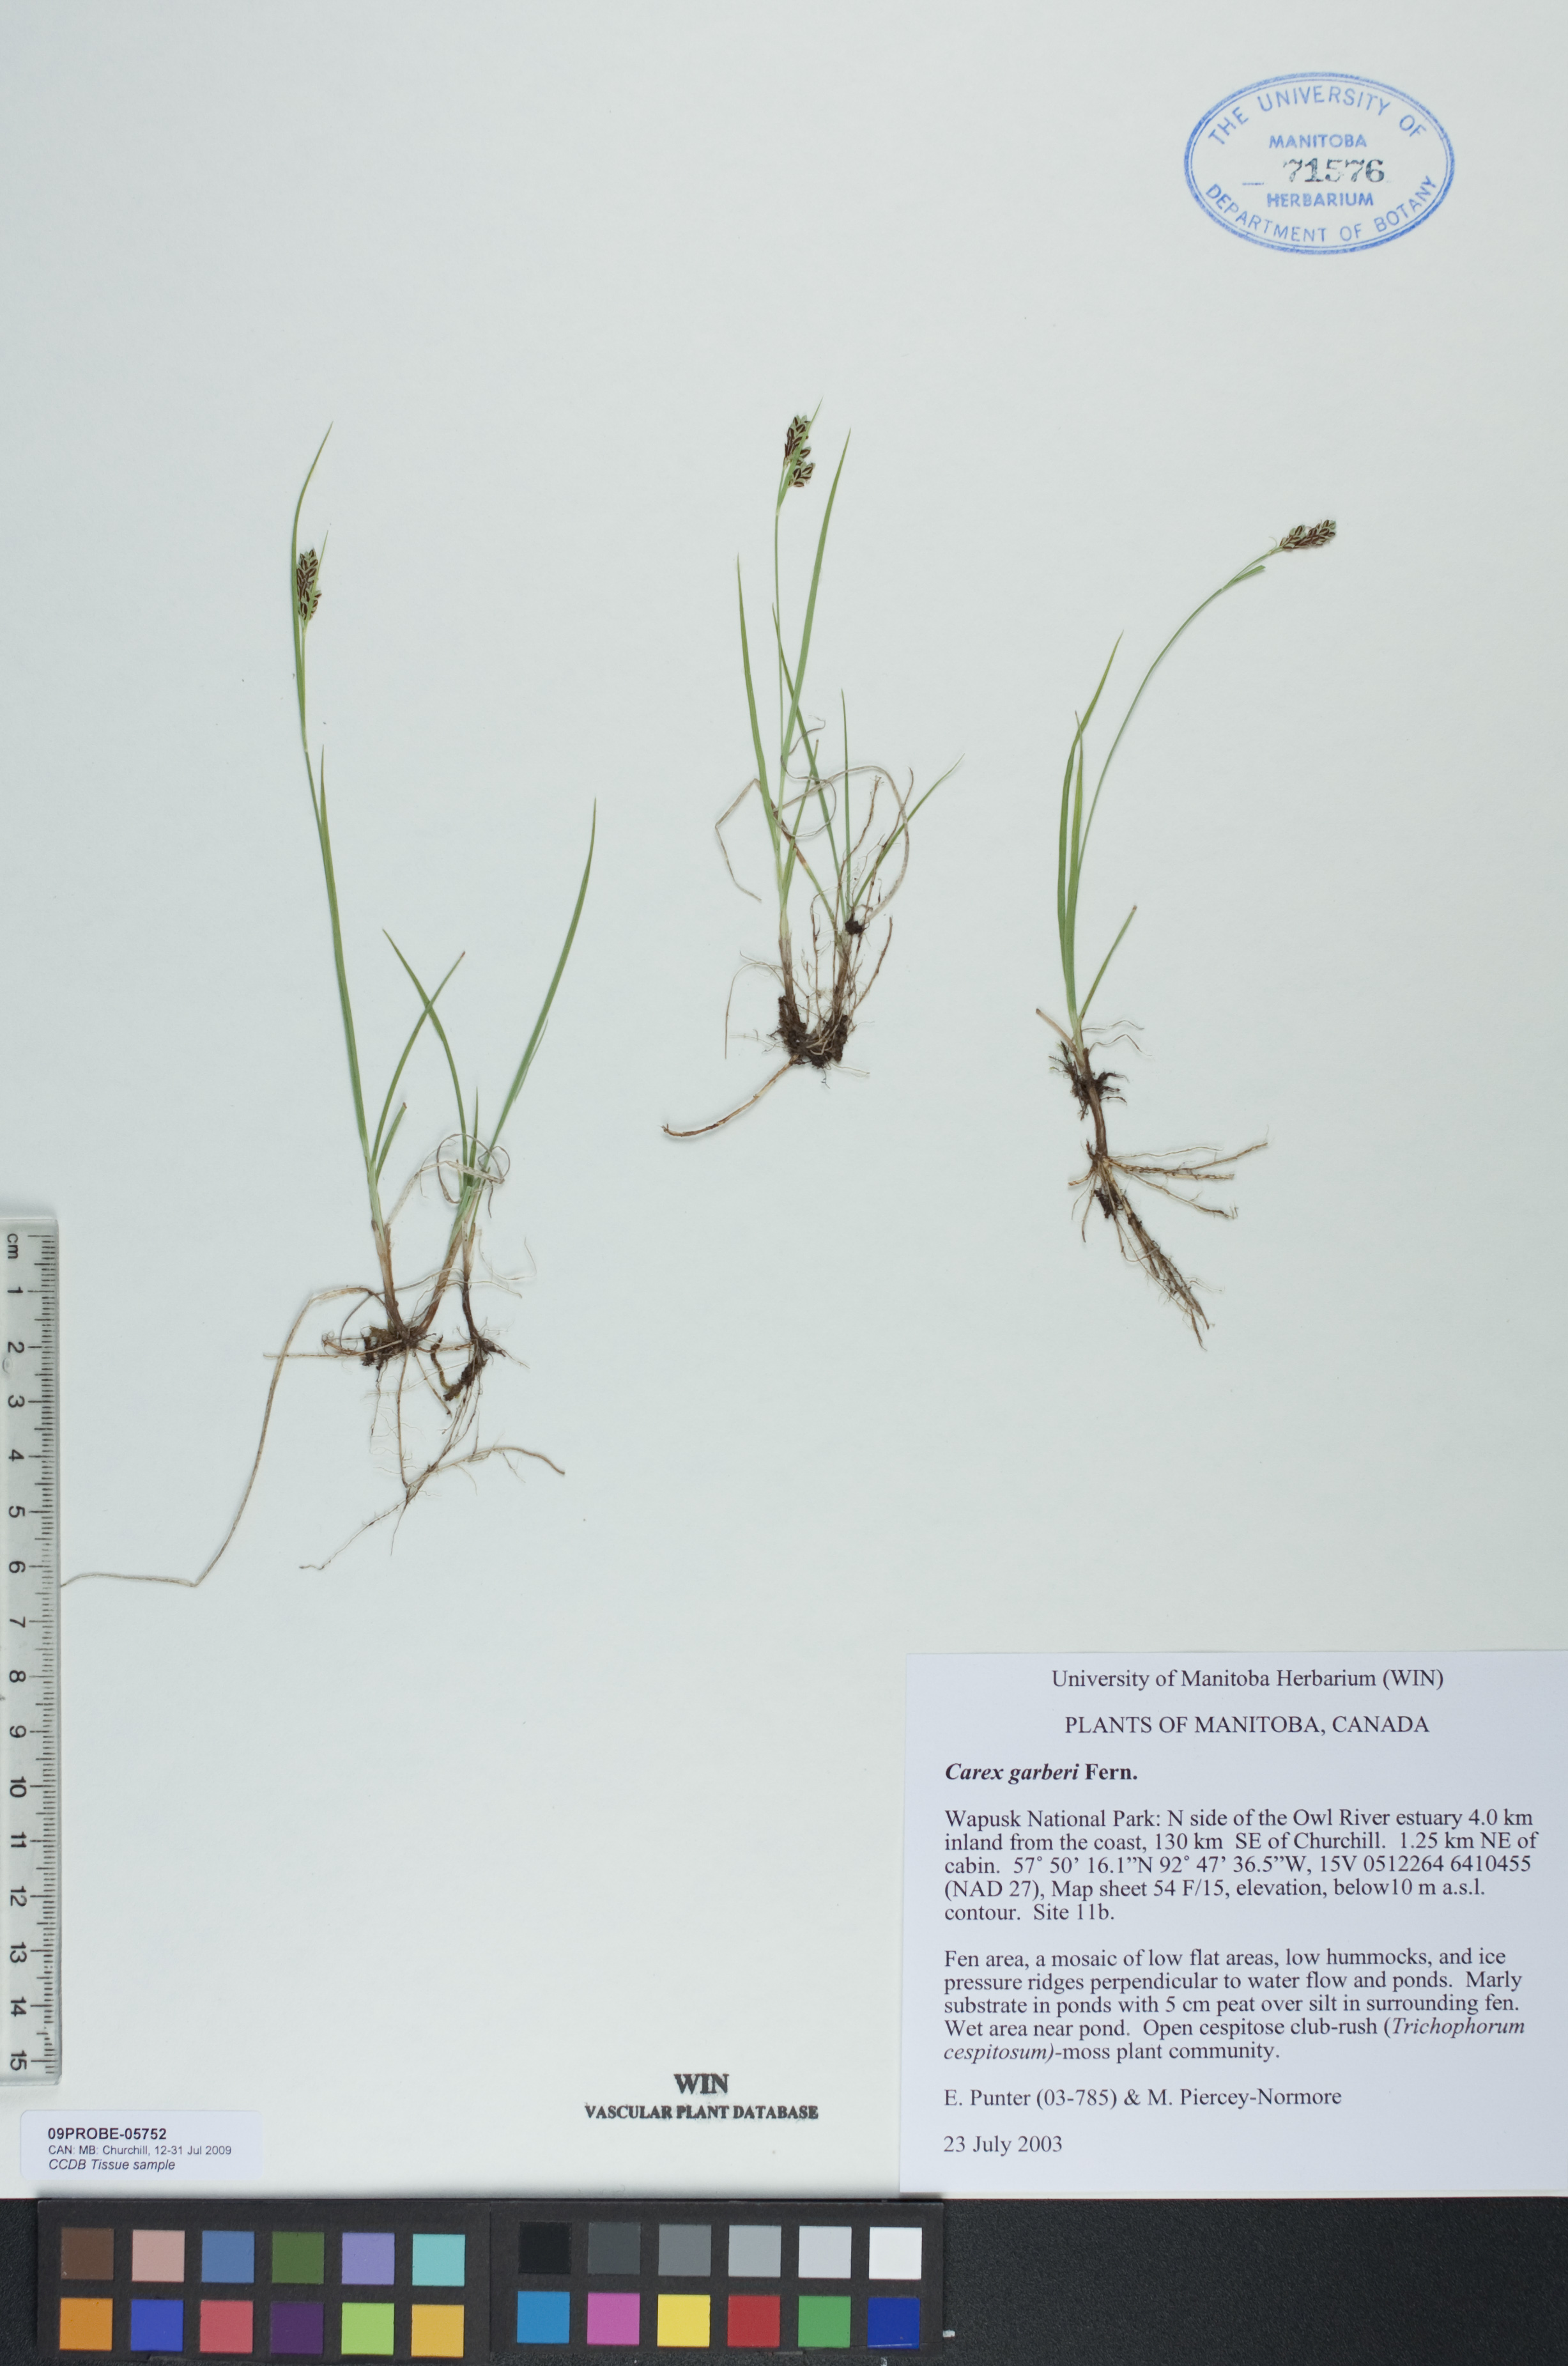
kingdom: Plantae
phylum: Tracheophyta
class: Liliopsida
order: Poales
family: Cyperaceae
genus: Carex
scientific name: Carex garberi
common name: Elk sedge
